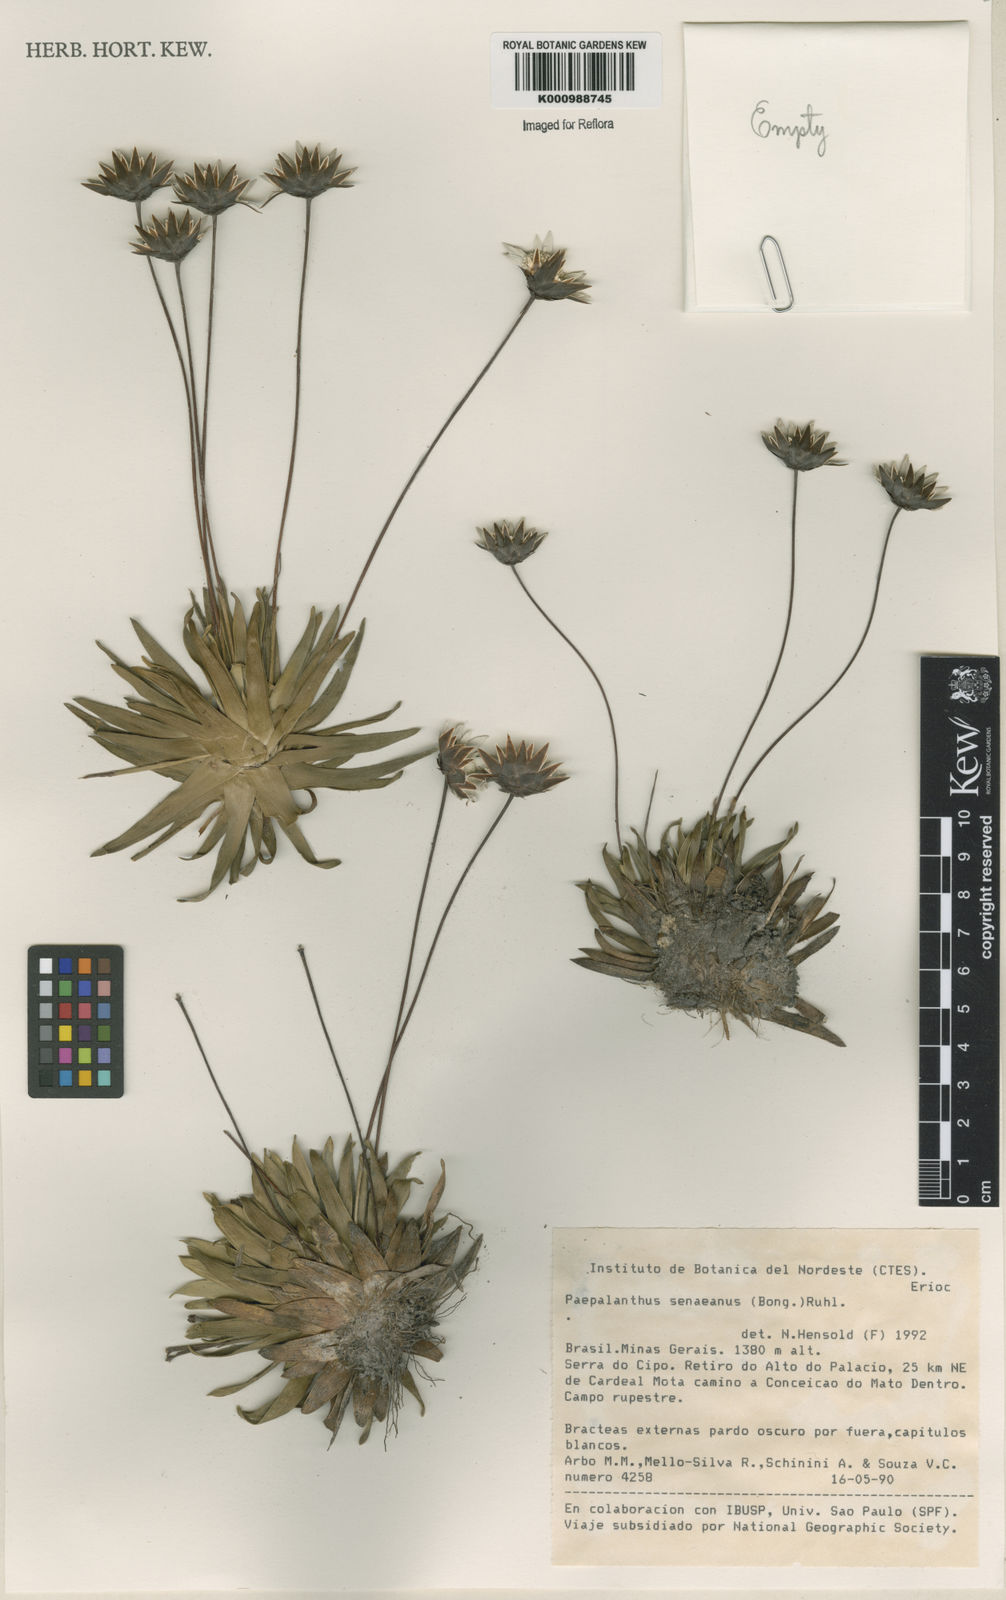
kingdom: Plantae
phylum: Tracheophyta
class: Liliopsida
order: Poales
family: Eriocaulaceae
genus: Paepalanthus
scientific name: Paepalanthus
